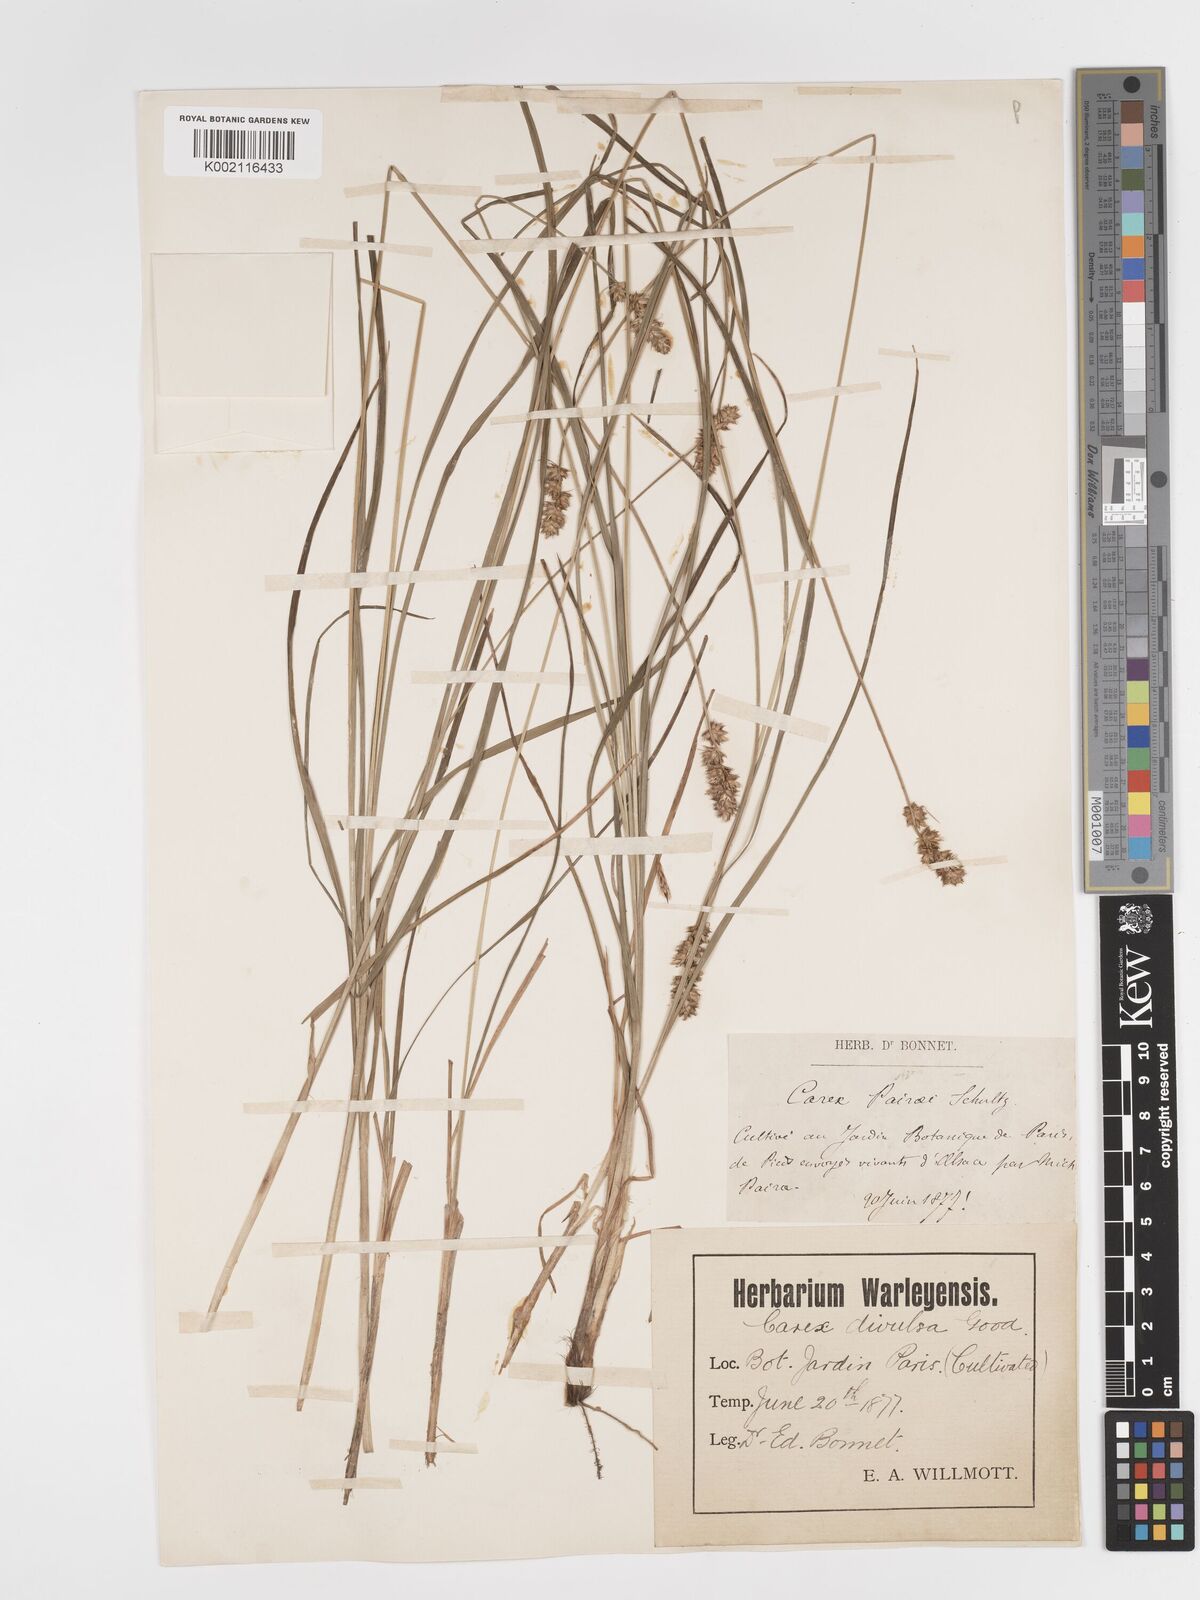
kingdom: Plantae
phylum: Tracheophyta
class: Liliopsida
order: Poales
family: Cyperaceae
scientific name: Cyperaceae
